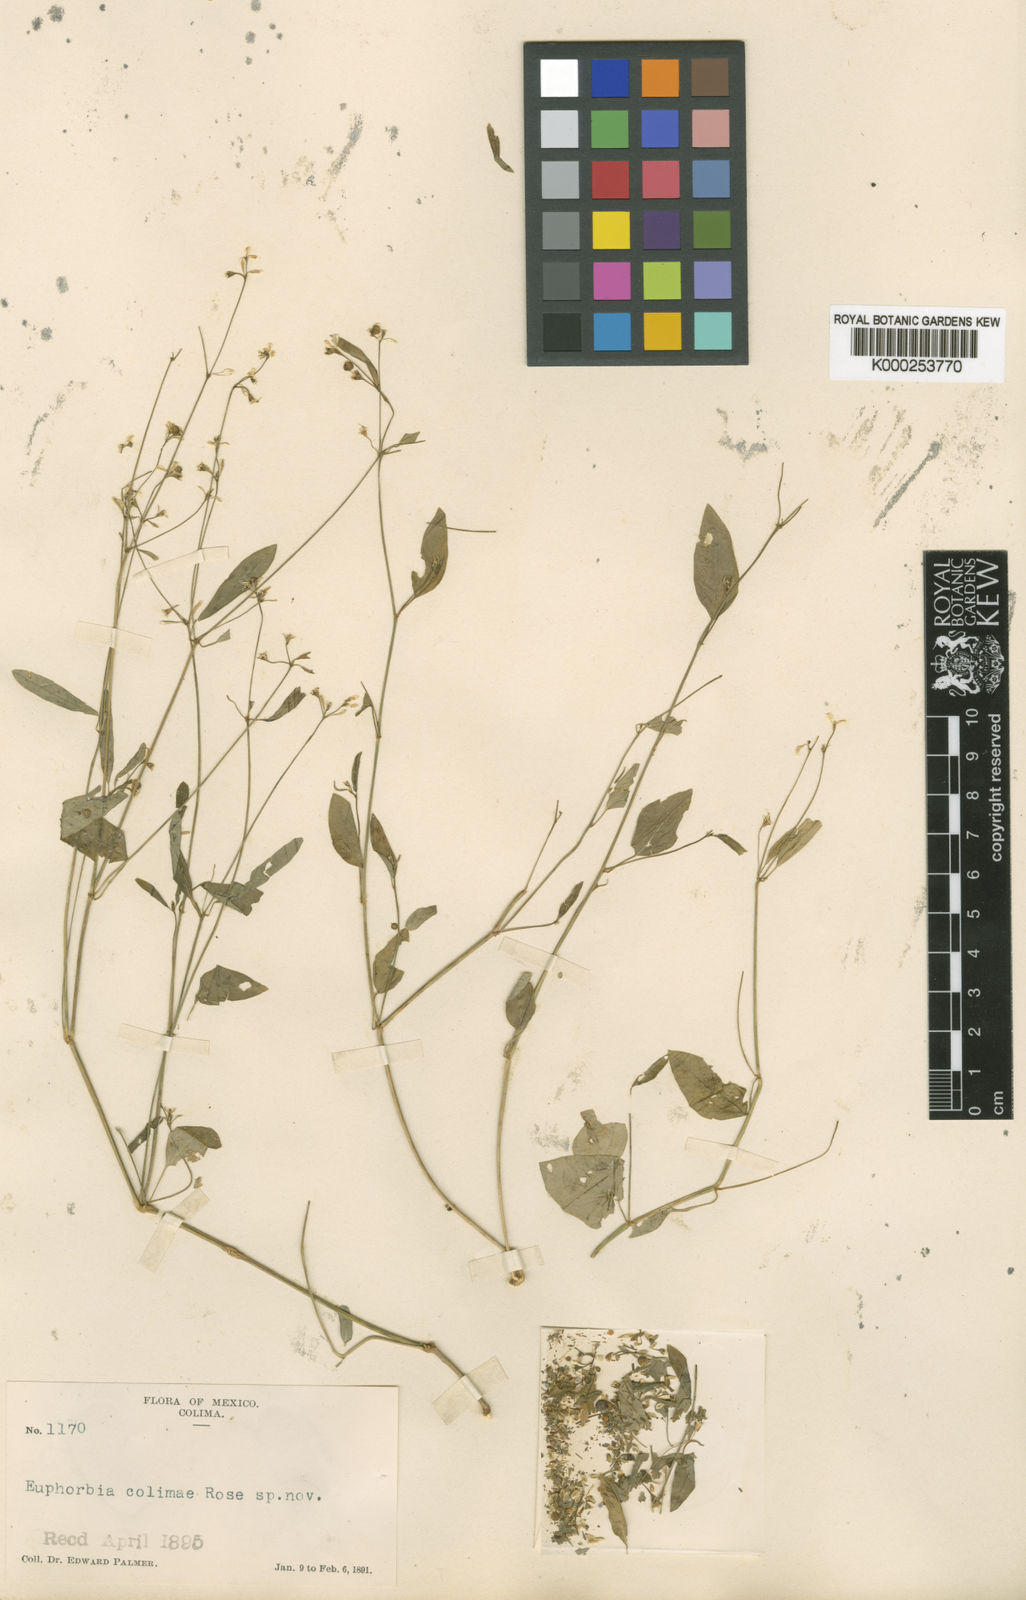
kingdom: Plantae
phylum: Tracheophyta
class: Magnoliopsida
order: Malpighiales
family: Euphorbiaceae
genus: Euphorbia
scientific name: Euphorbia graminea
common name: Grassleaf spurge
